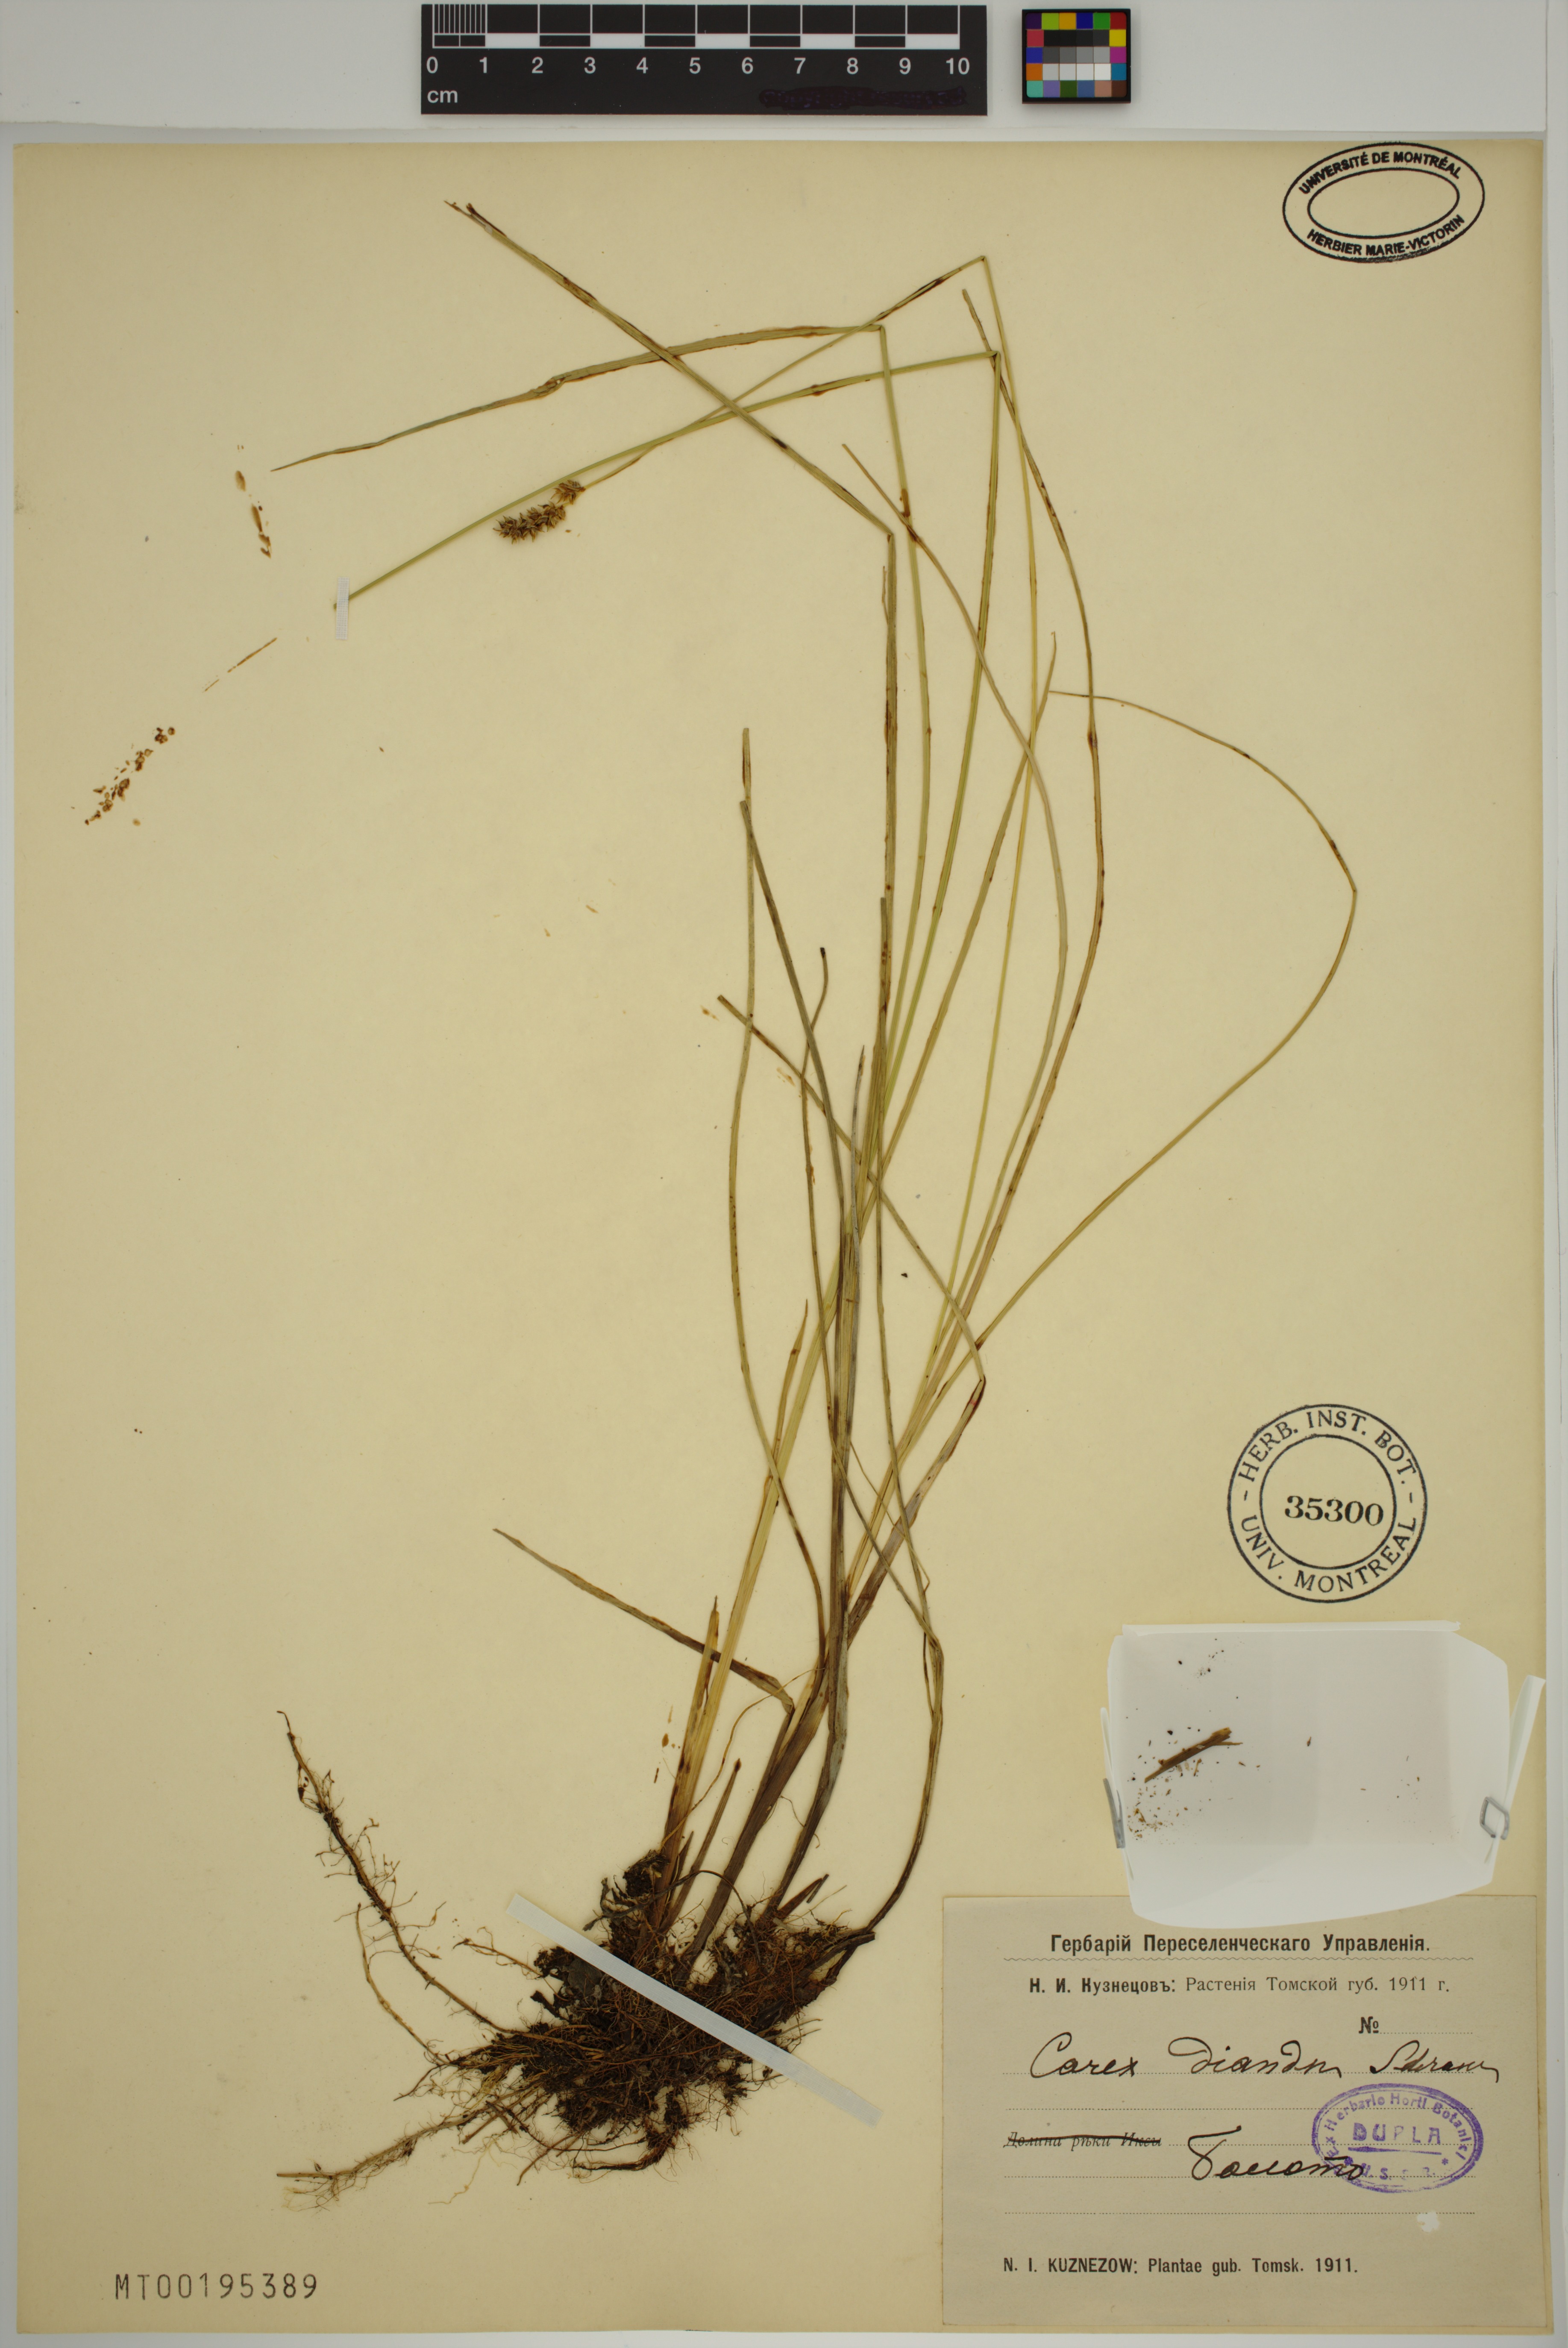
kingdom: Plantae
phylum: Tracheophyta
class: Liliopsida
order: Poales
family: Cyperaceae
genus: Carex
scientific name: Carex diandra
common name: Lesser tussock-sedge
